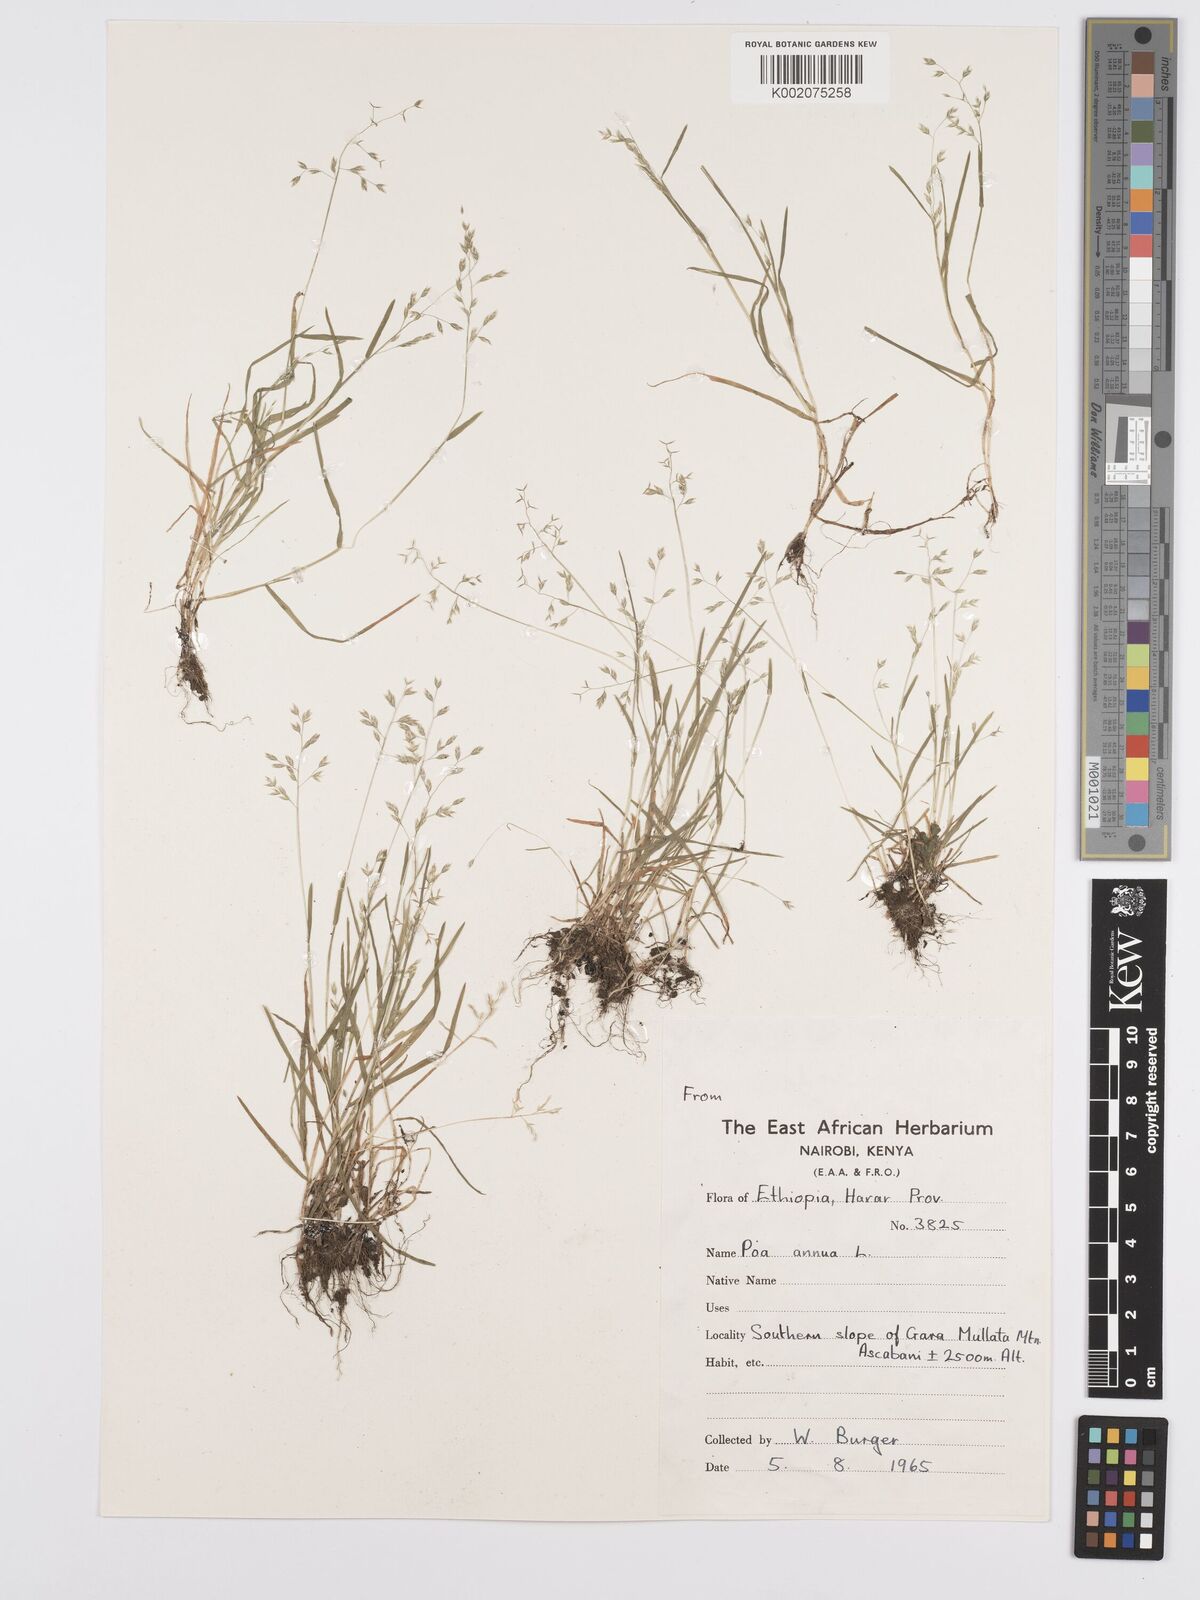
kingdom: Plantae
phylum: Tracheophyta
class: Liliopsida
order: Poales
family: Poaceae
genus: Poa
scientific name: Poa annua
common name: Annual bluegrass
